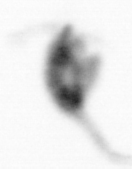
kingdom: Animalia
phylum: Arthropoda
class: Copepoda
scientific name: Copepoda
